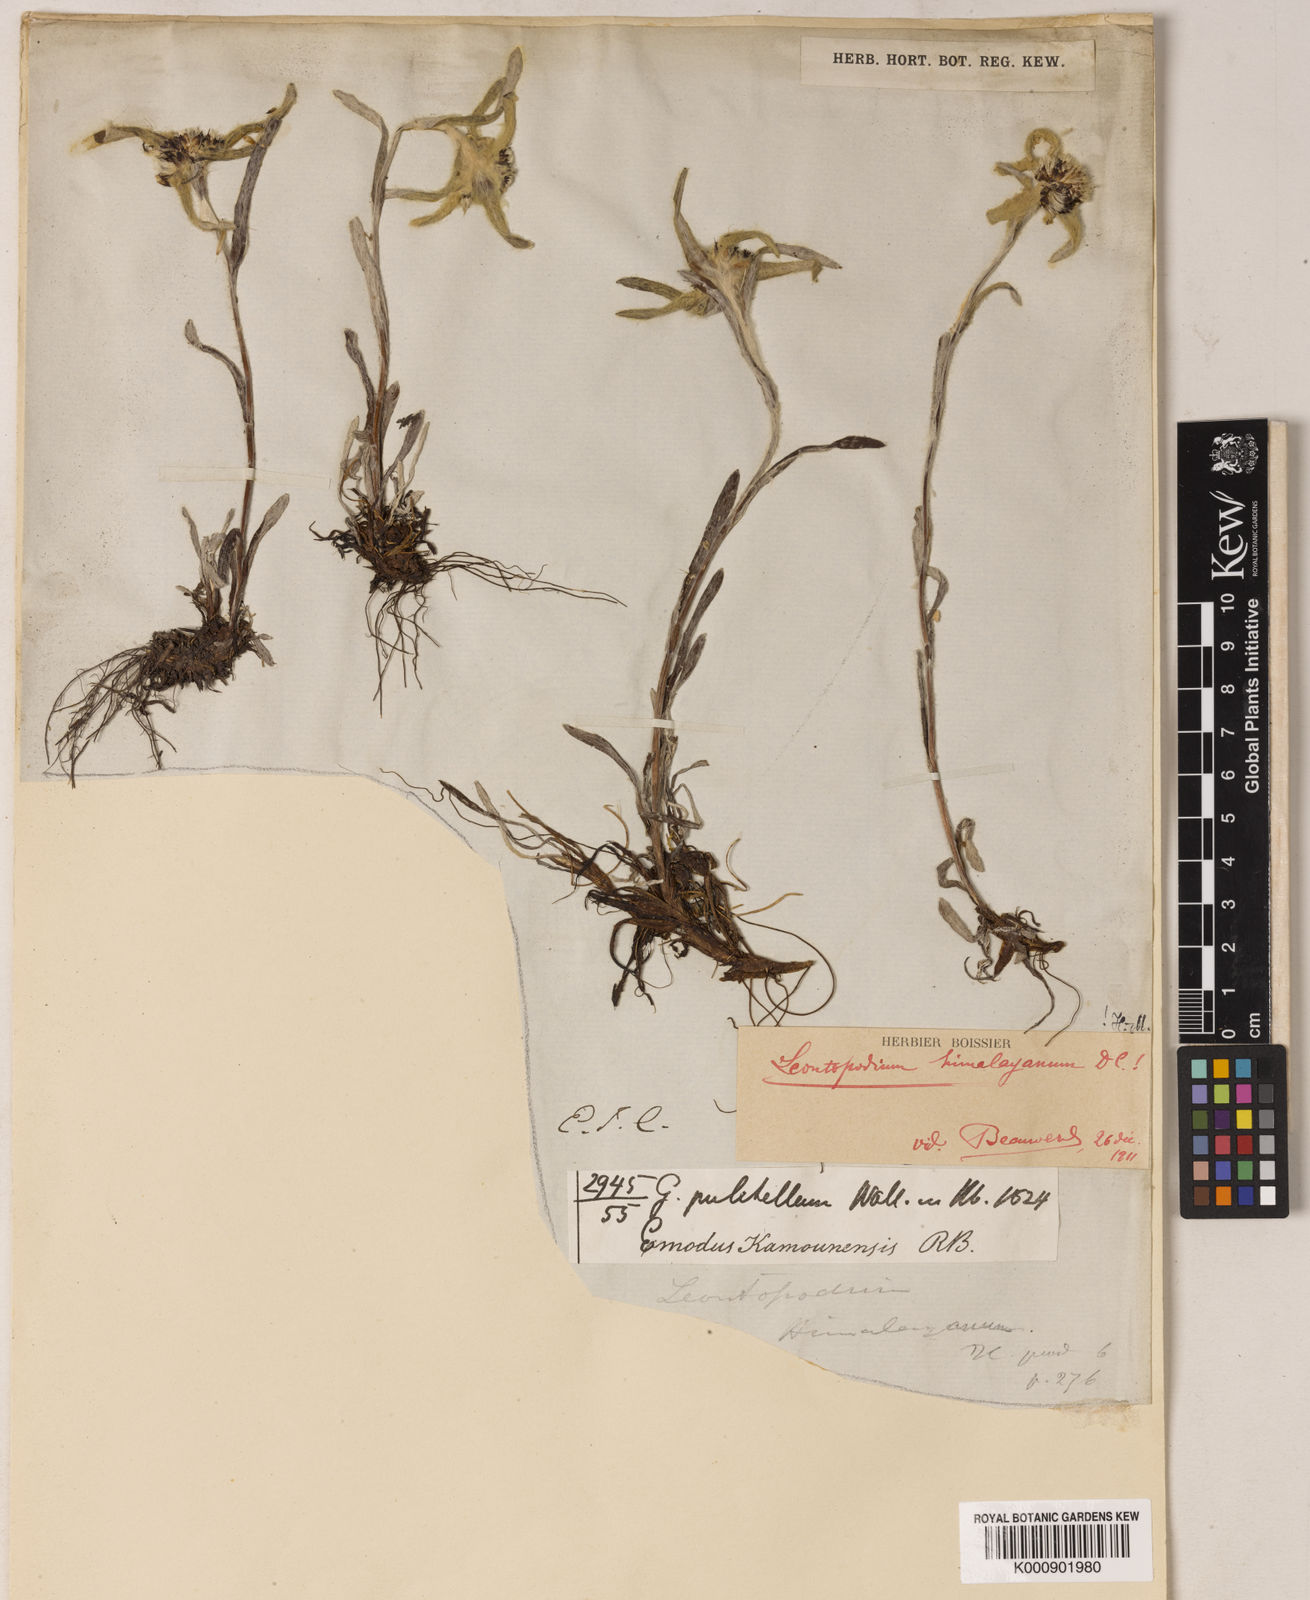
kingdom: Plantae
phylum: Tracheophyta
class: Magnoliopsida
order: Asterales
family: Asteraceae
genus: Leontopodium
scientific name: Leontopodium himalayanum
